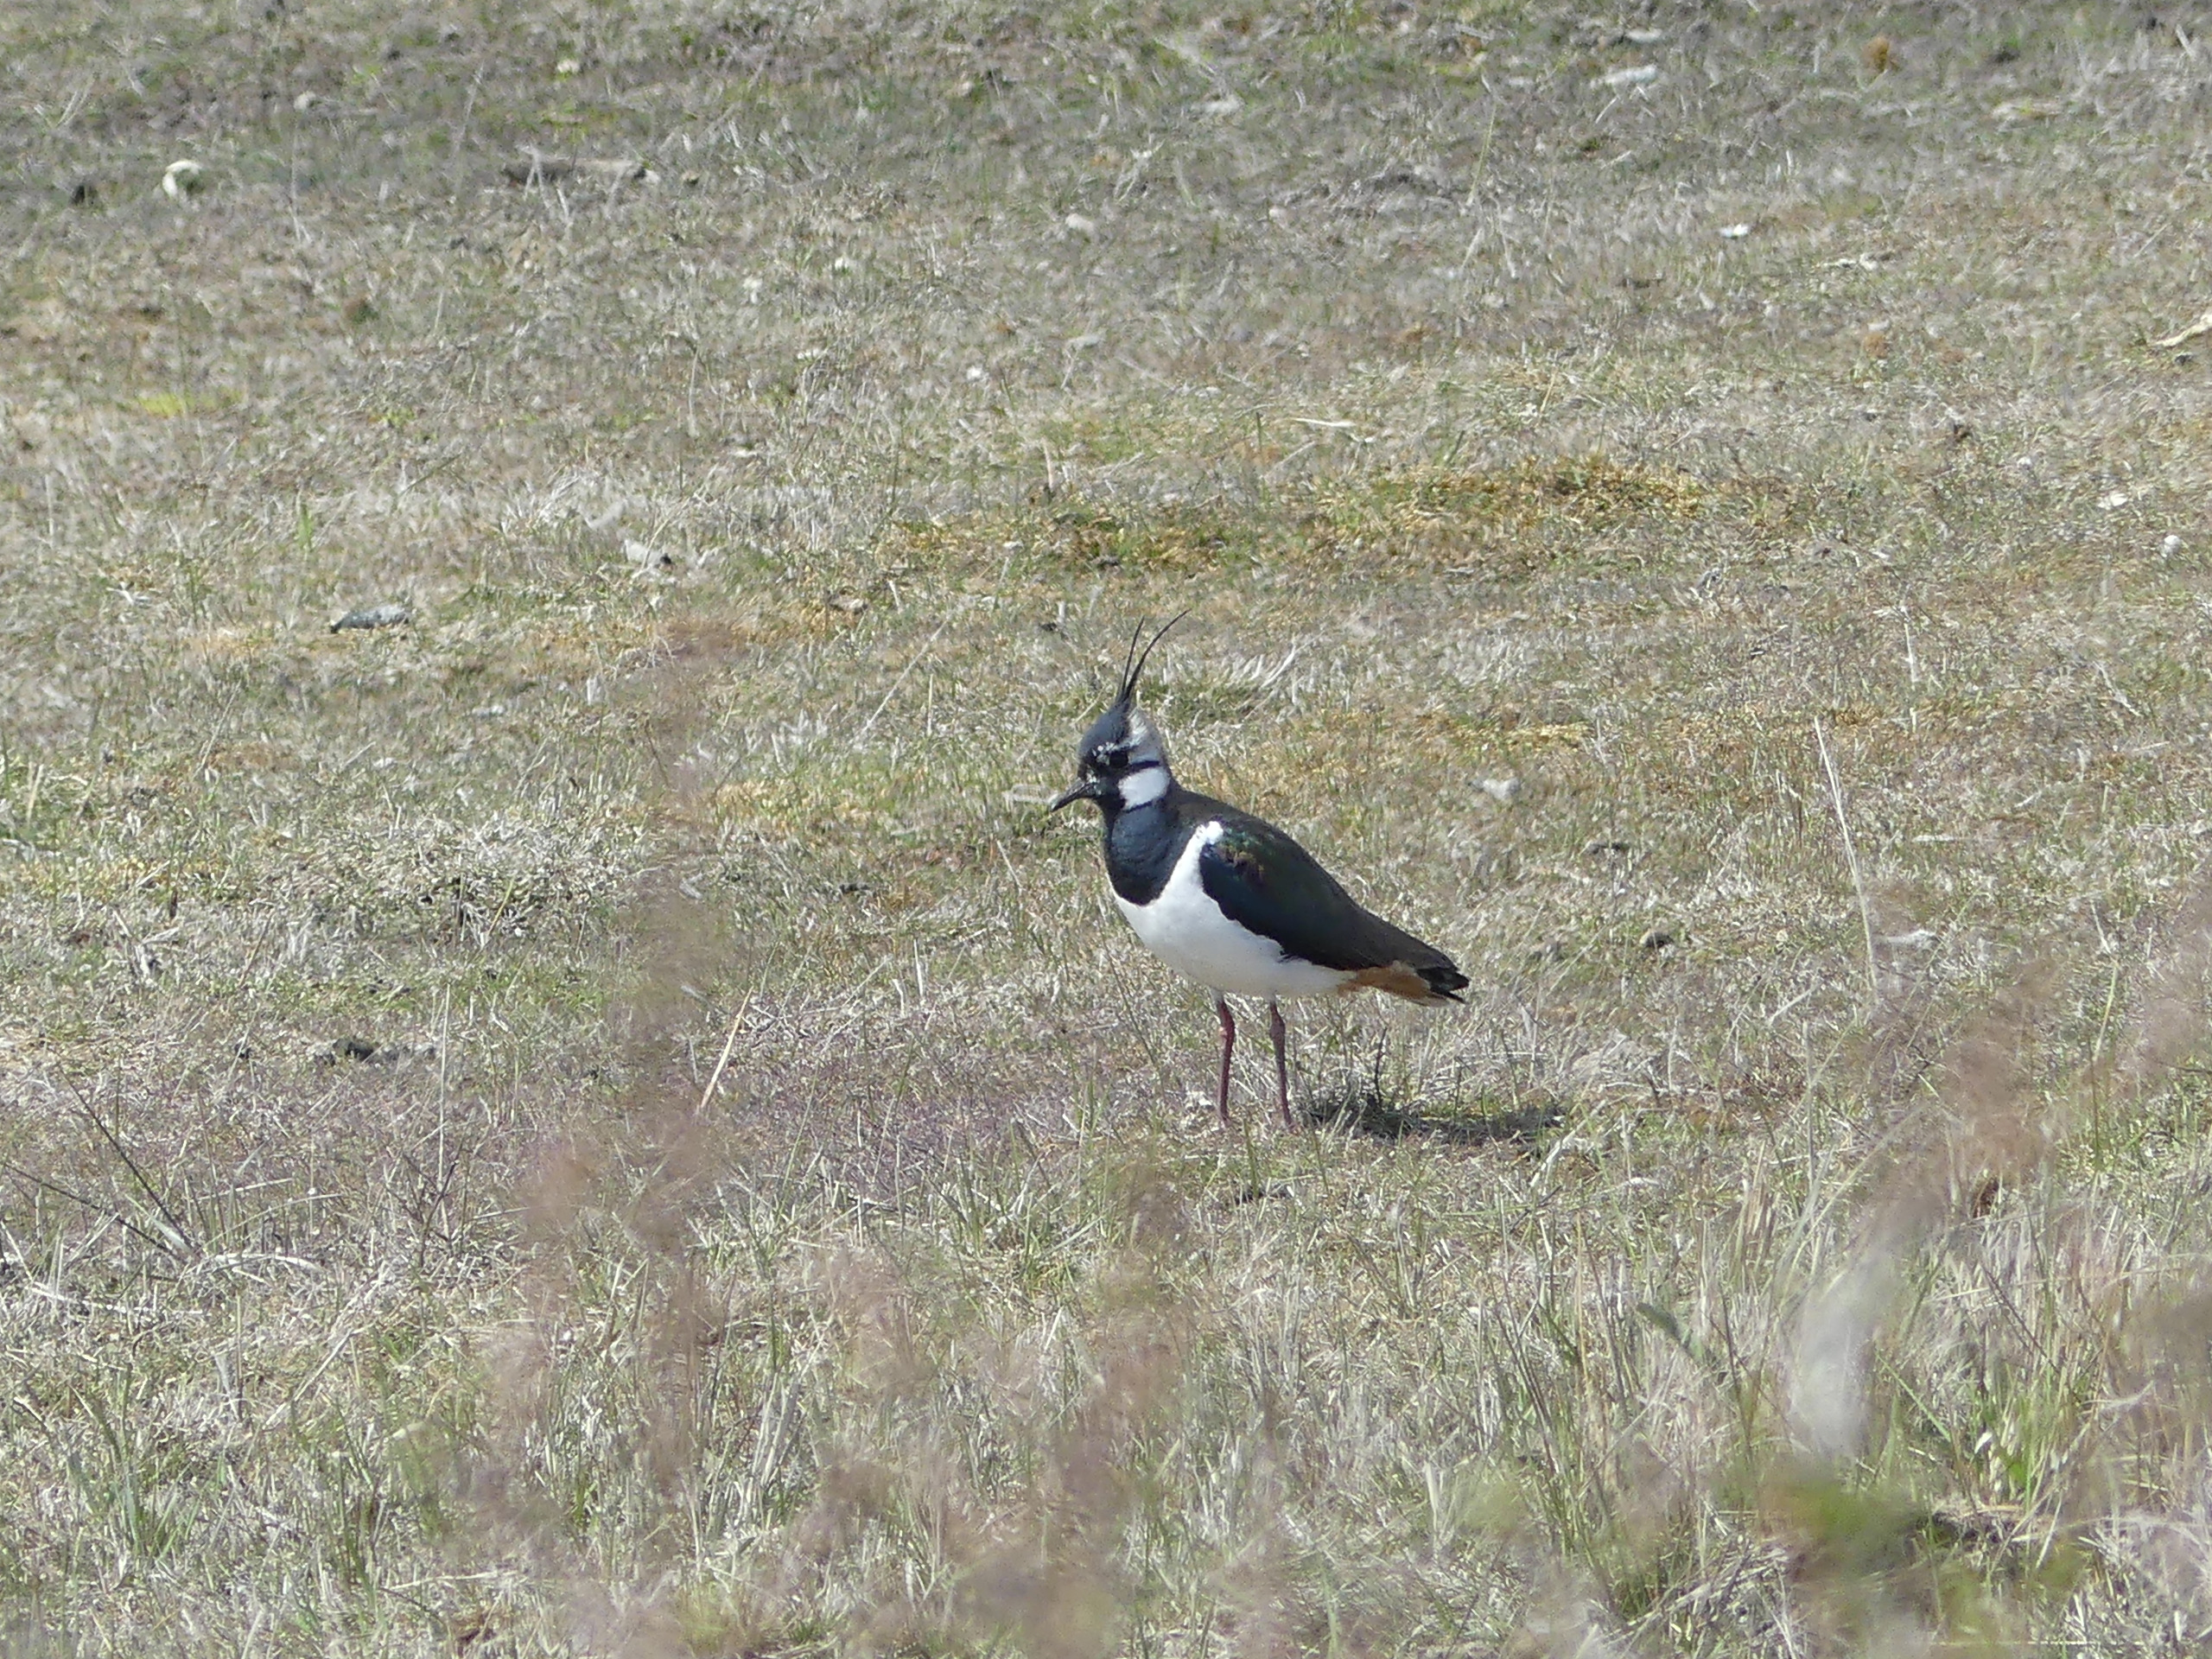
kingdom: Animalia
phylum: Chordata
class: Aves
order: Charadriiformes
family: Charadriidae
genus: Vanellus
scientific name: Vanellus vanellus
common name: Vibe
